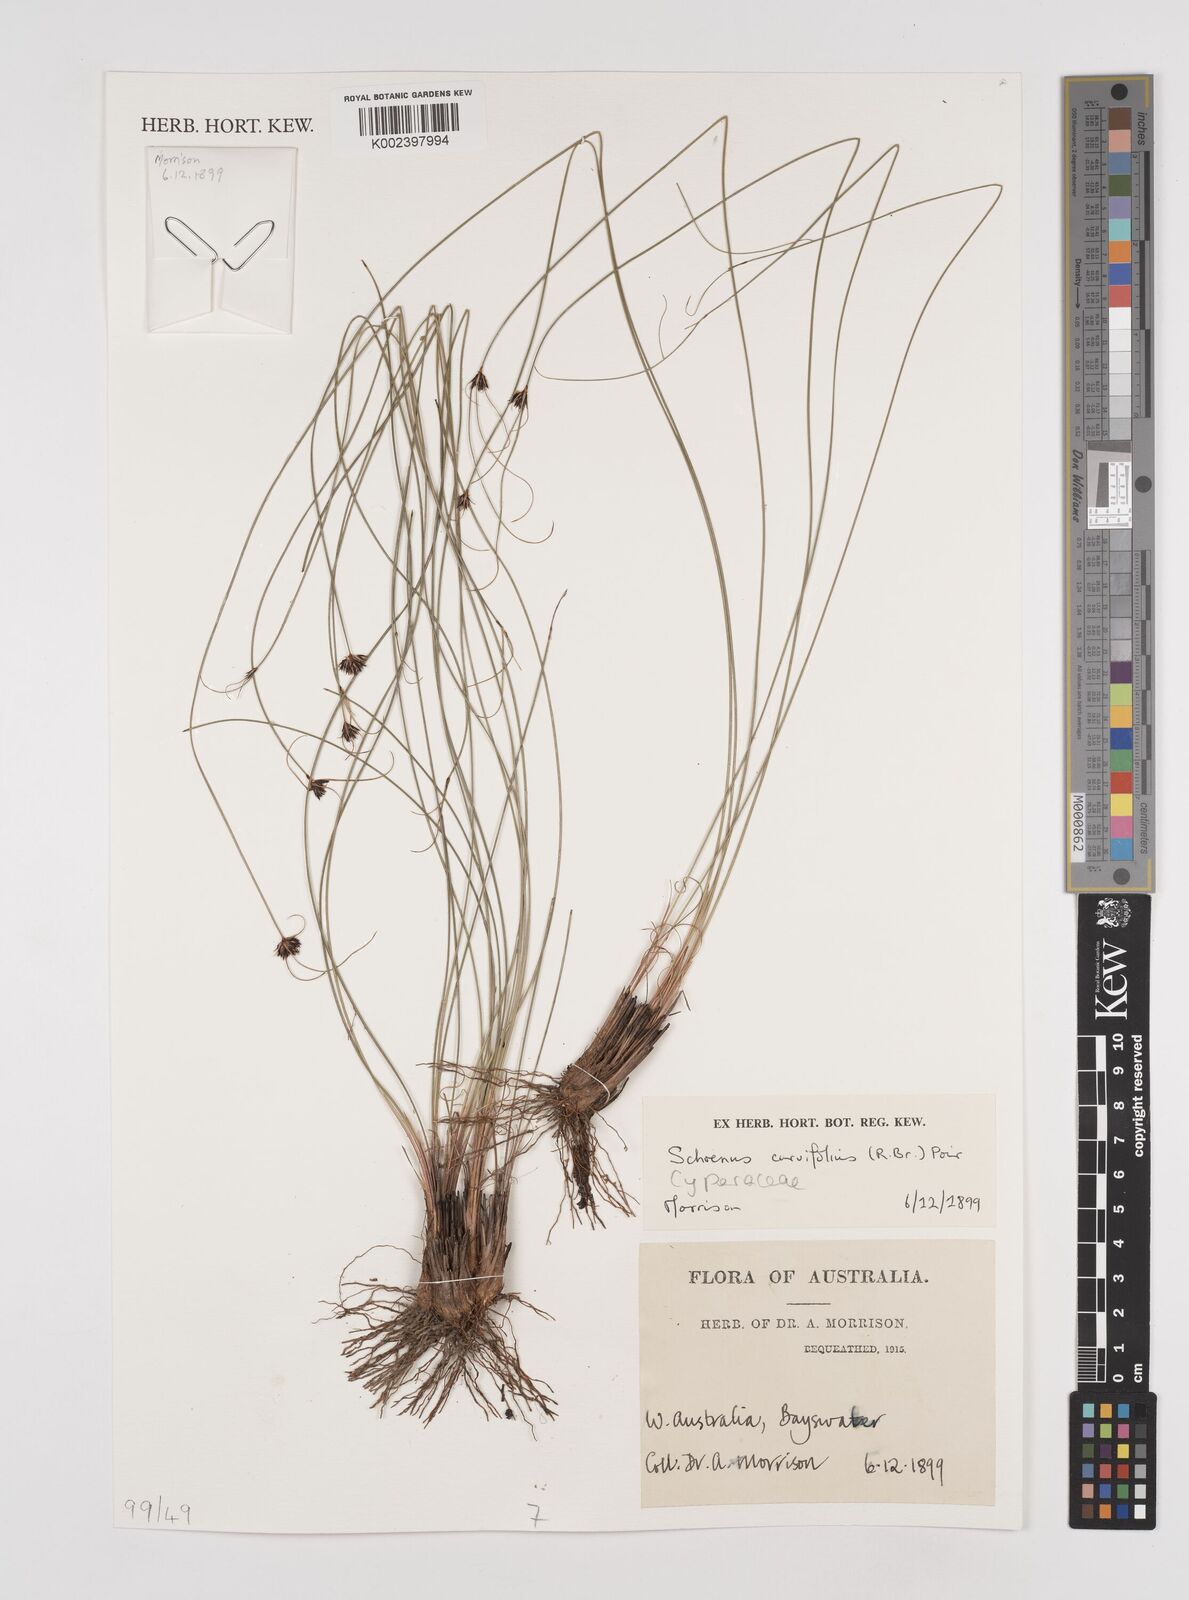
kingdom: Plantae
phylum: Tracheophyta
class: Liliopsida
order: Poales
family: Cyperaceae
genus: Schoenus
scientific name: Schoenus curvifolius
